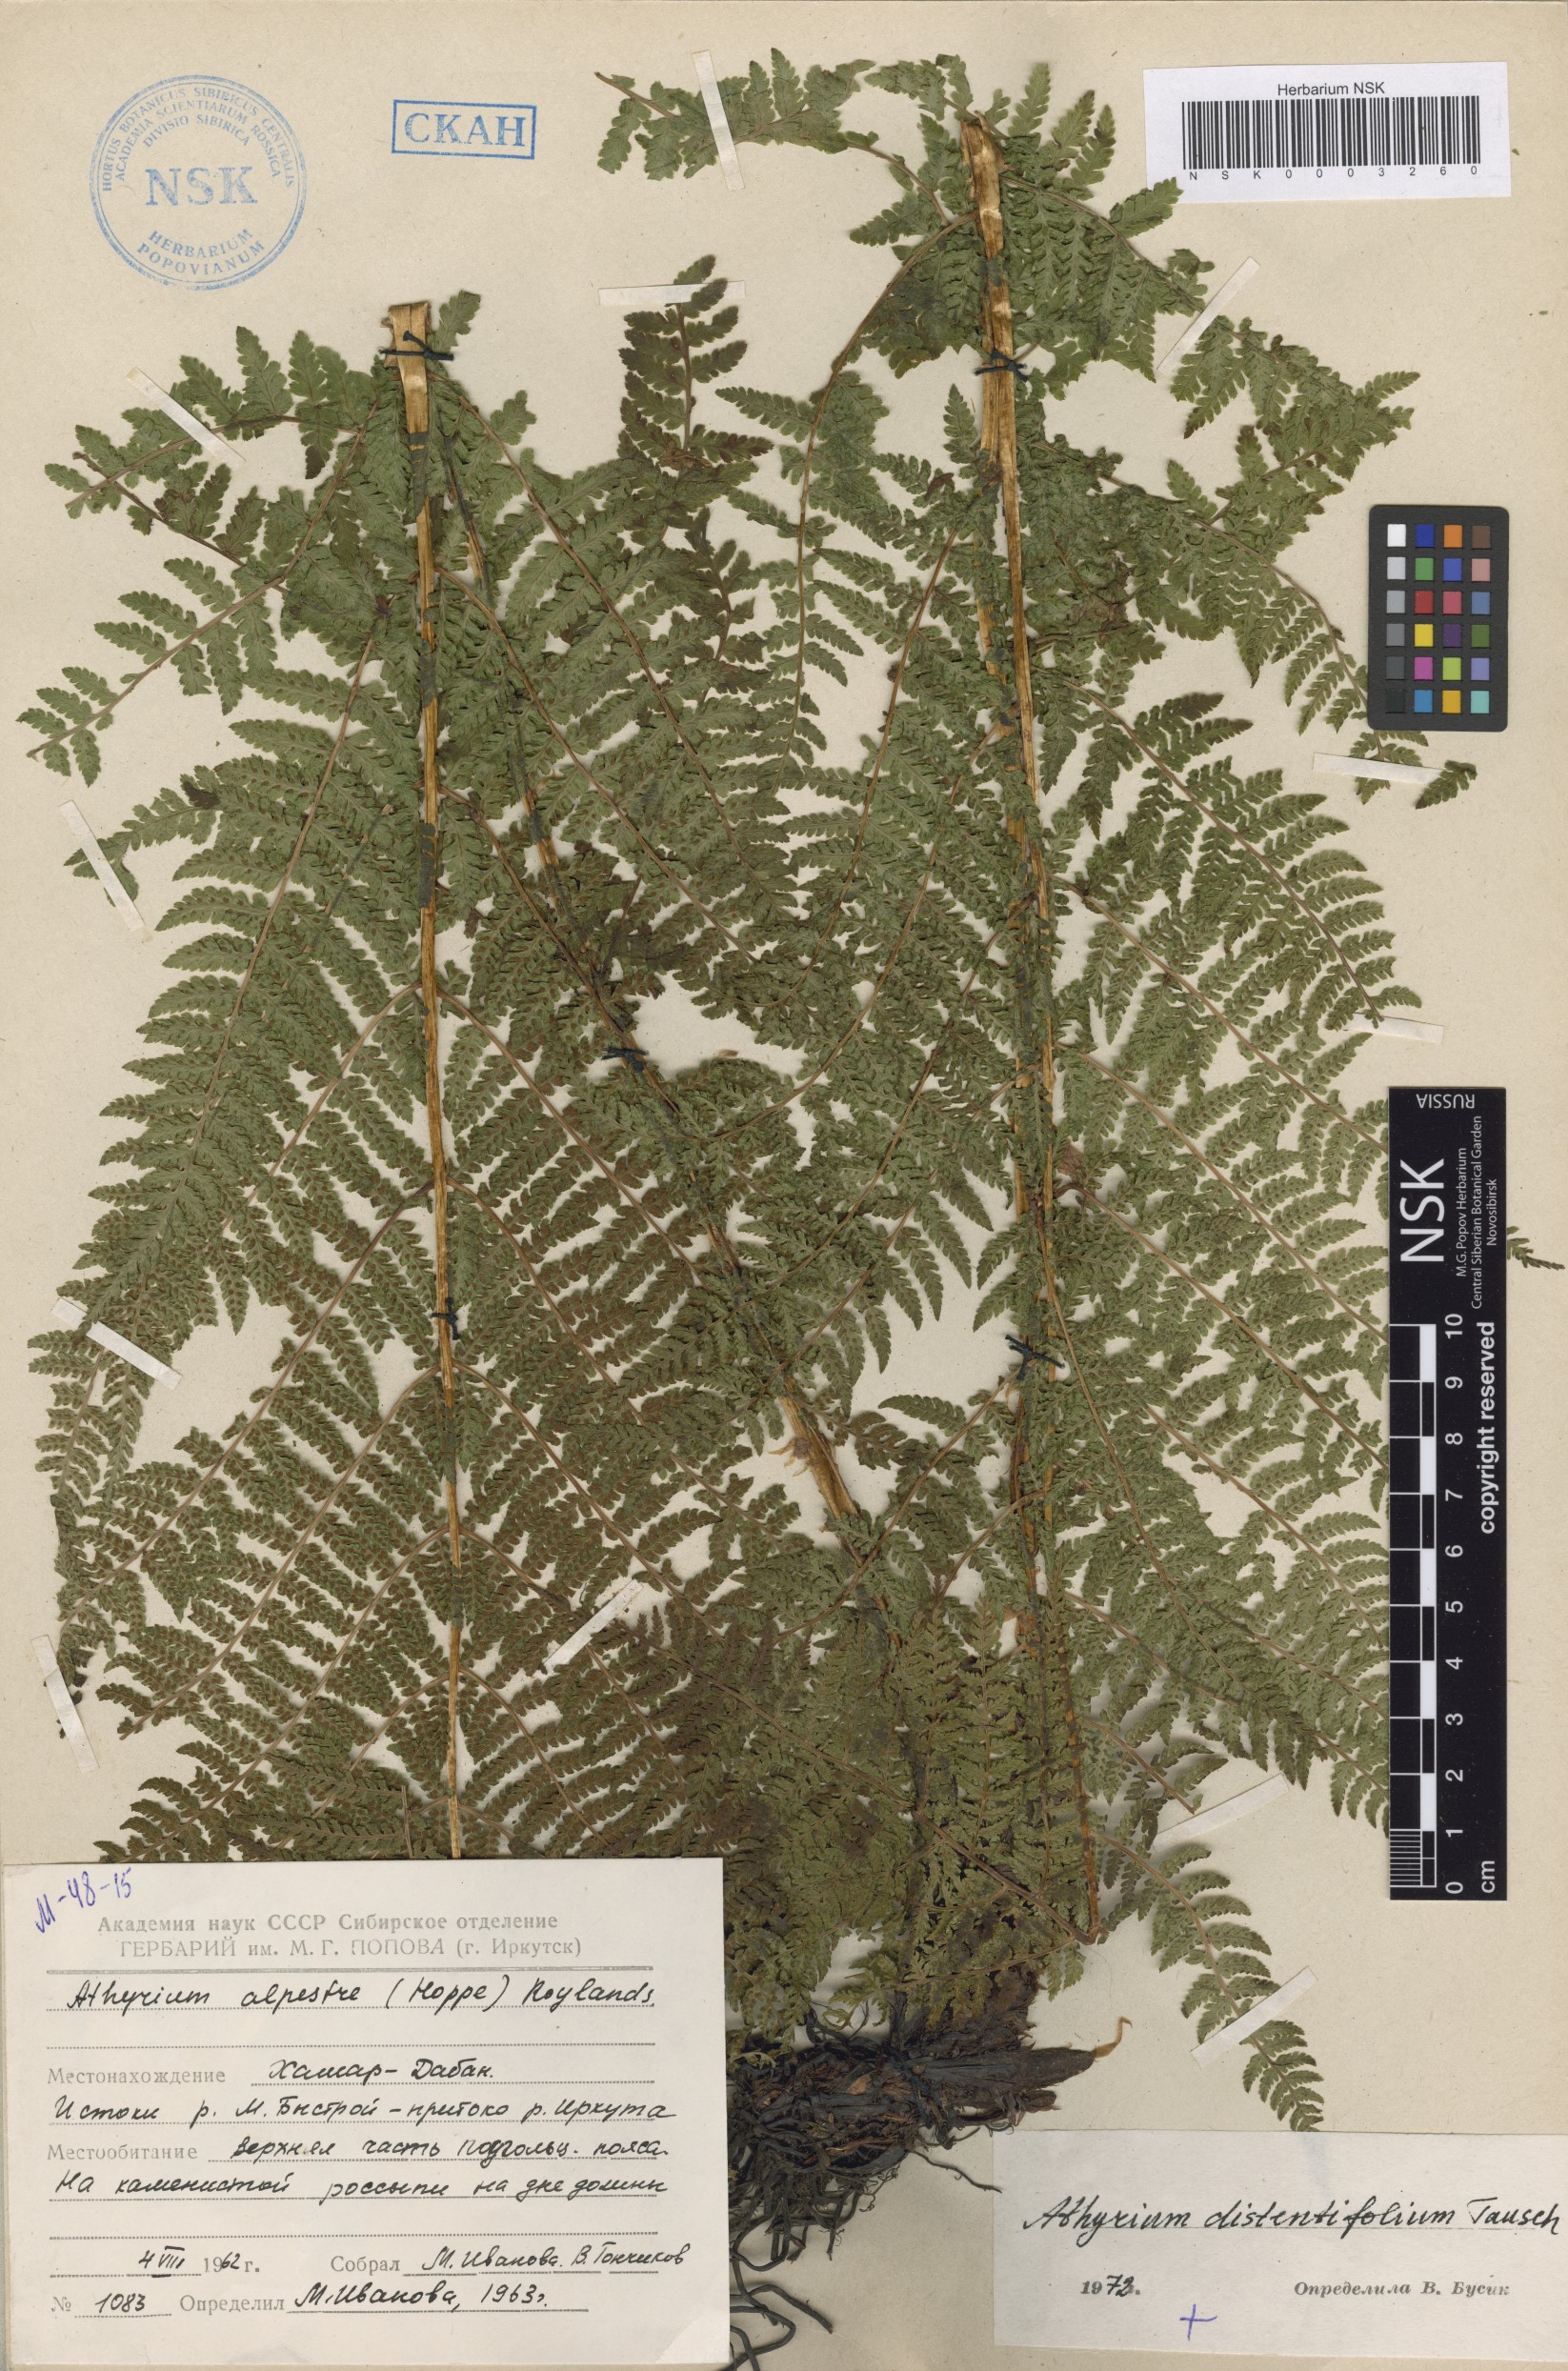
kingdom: Plantae
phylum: Tracheophyta
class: Polypodiopsida
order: Polypodiales
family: Athyriaceae
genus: Pseudathyrium
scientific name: Pseudathyrium alpestre
